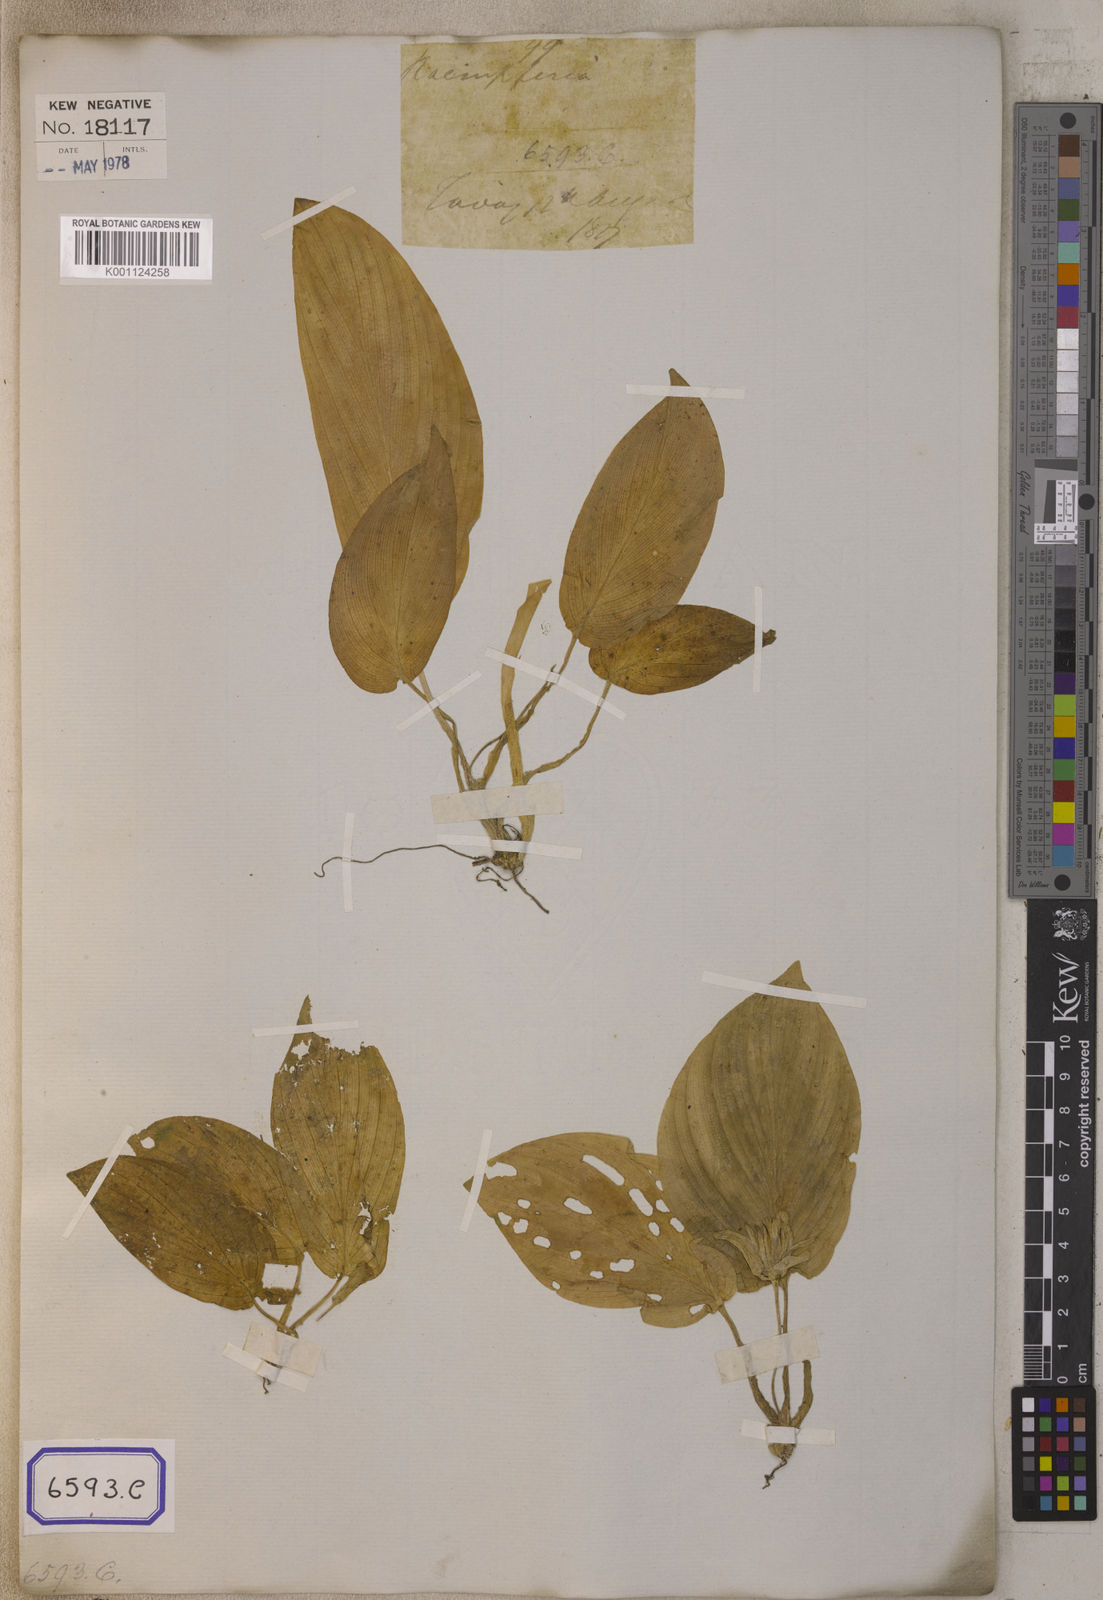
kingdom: Plantae
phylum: Tracheophyta
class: Liliopsida
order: Zingiberales
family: Zingiberaceae
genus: Kaempferia
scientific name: Kaempferia elegans
